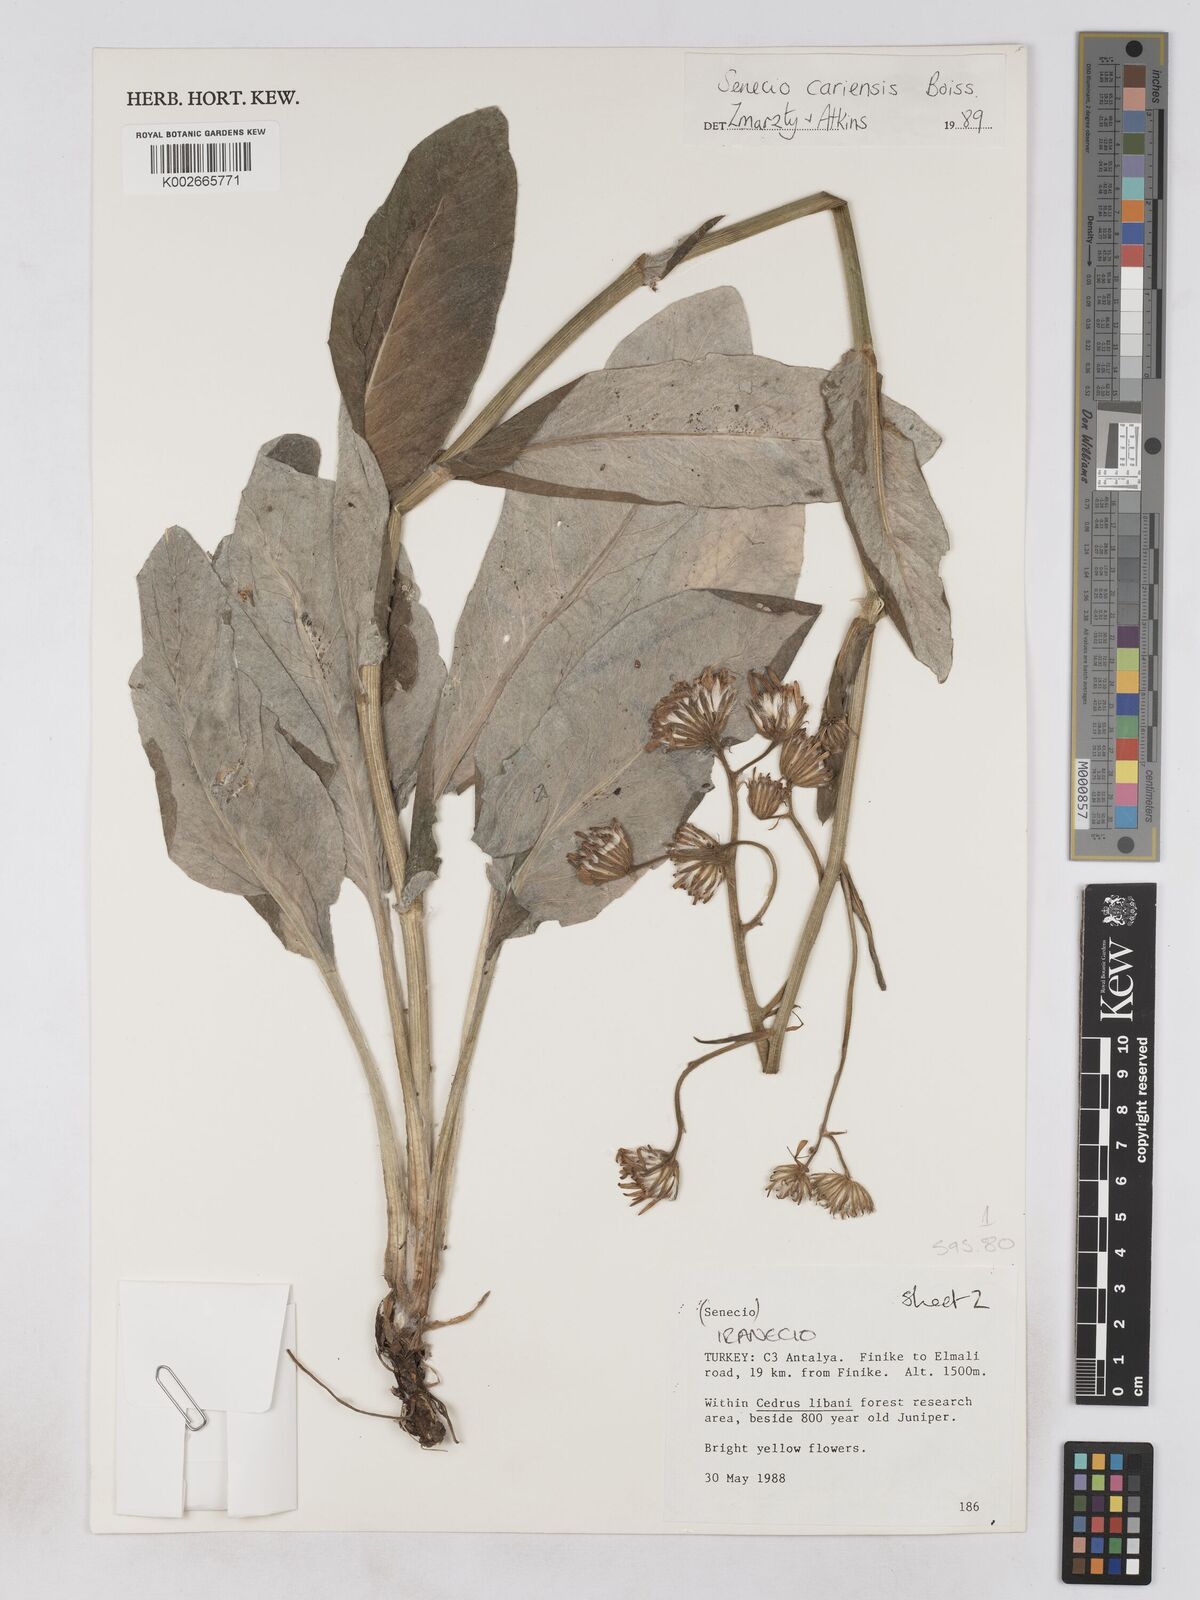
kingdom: Plantae
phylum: Tracheophyta
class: Magnoliopsida
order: Asterales
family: Asteraceae
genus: Turanecio
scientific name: Turanecio cariensis
